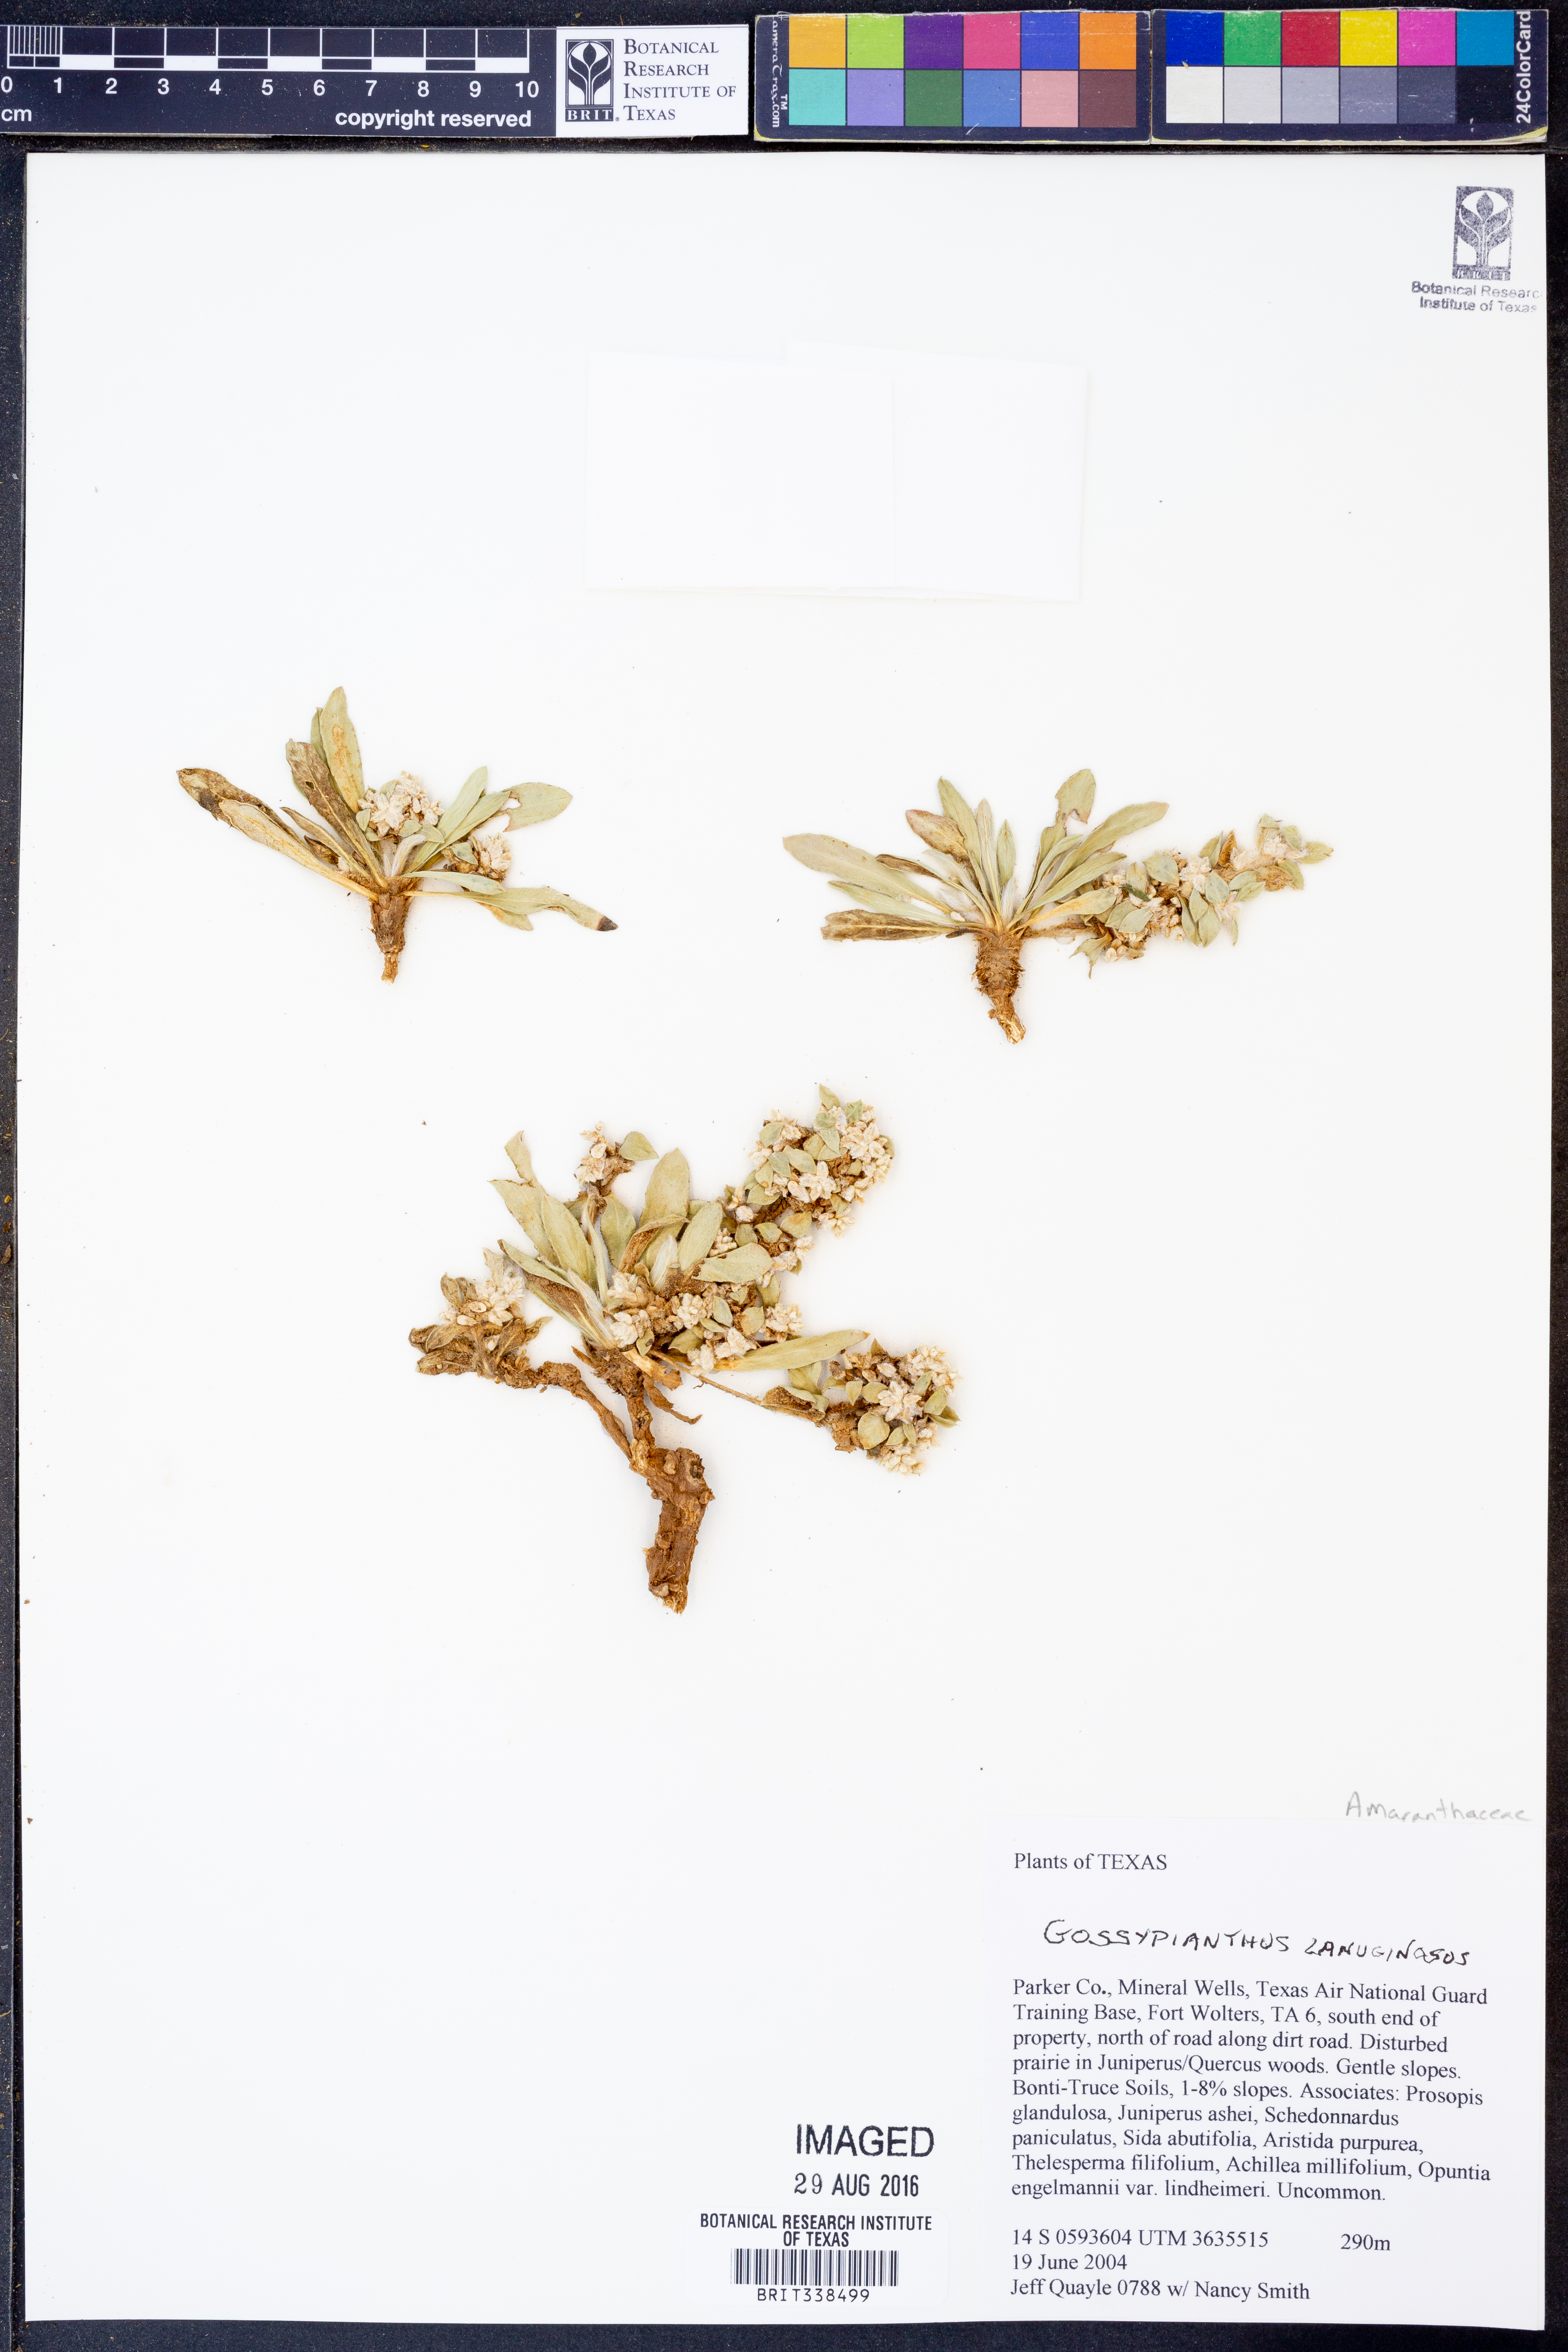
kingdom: Plantae
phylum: Tracheophyta
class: Magnoliopsida
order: Caryophyllales
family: Amaranthaceae
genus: Gomphrena
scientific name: Gomphrena lanuparonychioides
